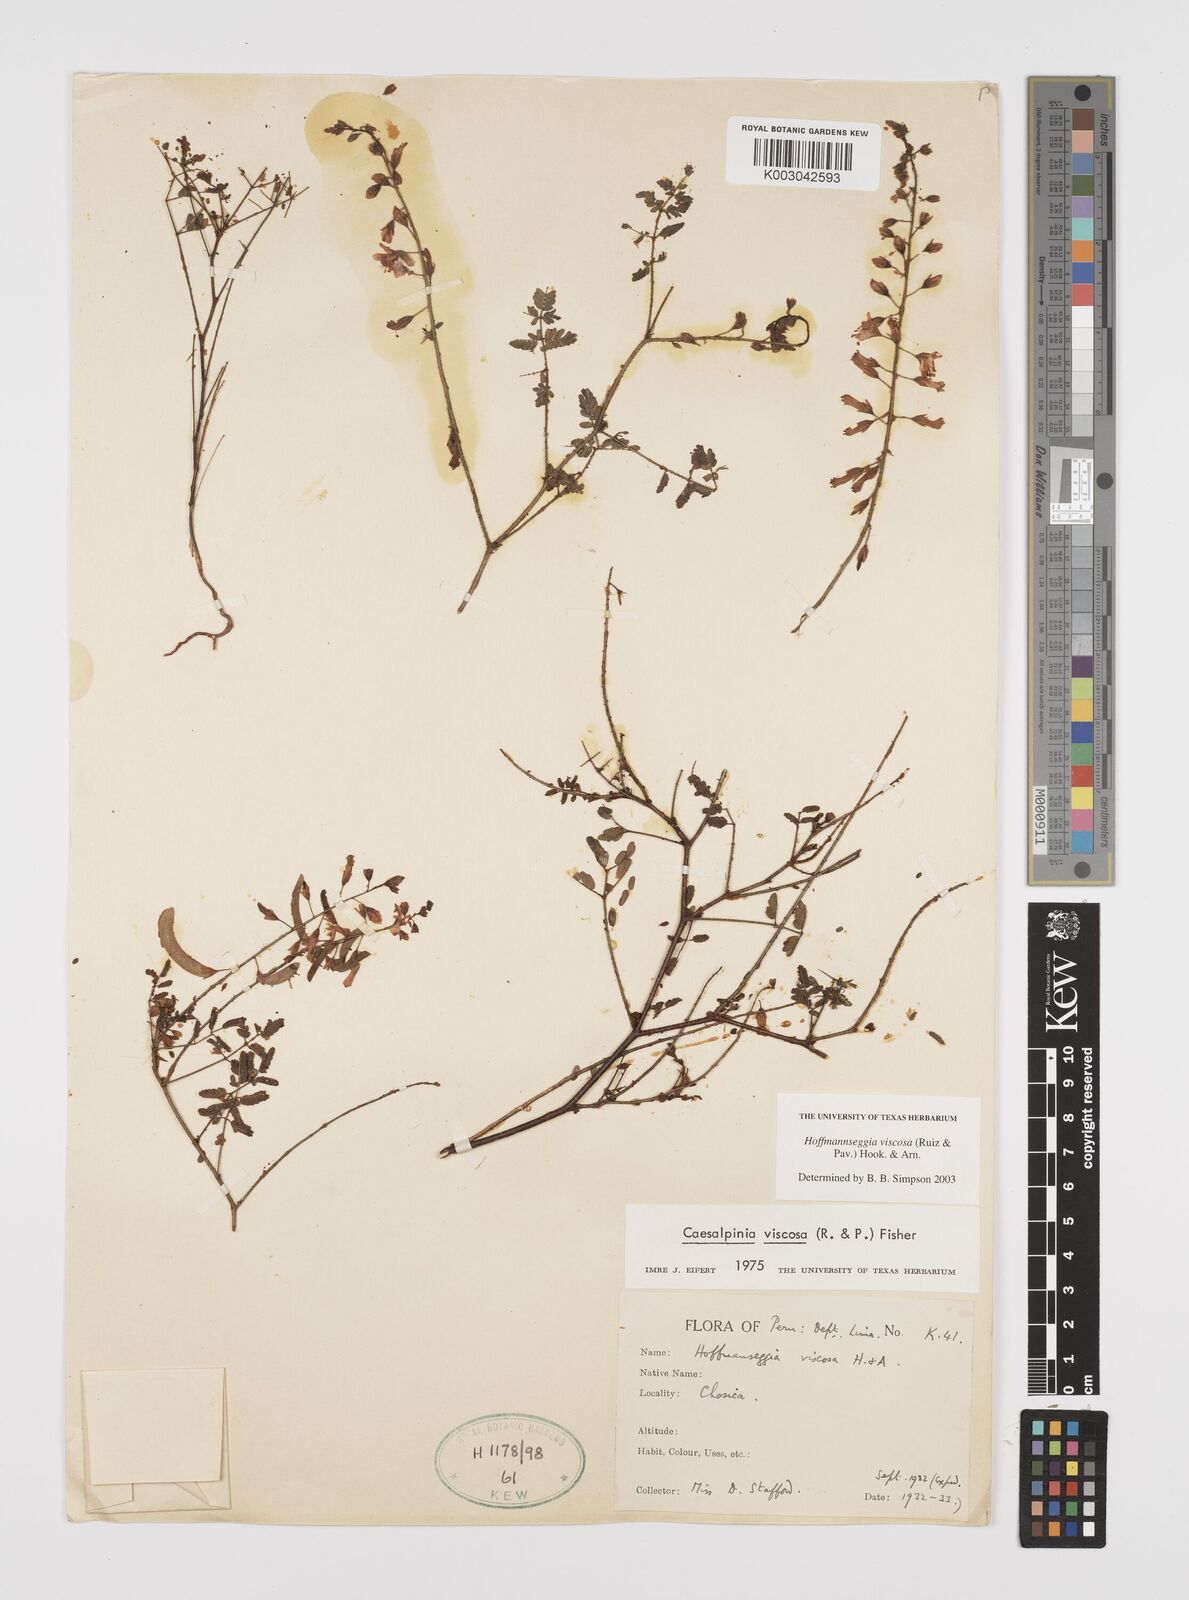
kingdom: Plantae
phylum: Tracheophyta
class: Magnoliopsida
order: Fabales
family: Fabaceae
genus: Hoffmannseggia
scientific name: Hoffmannseggia viscosa
